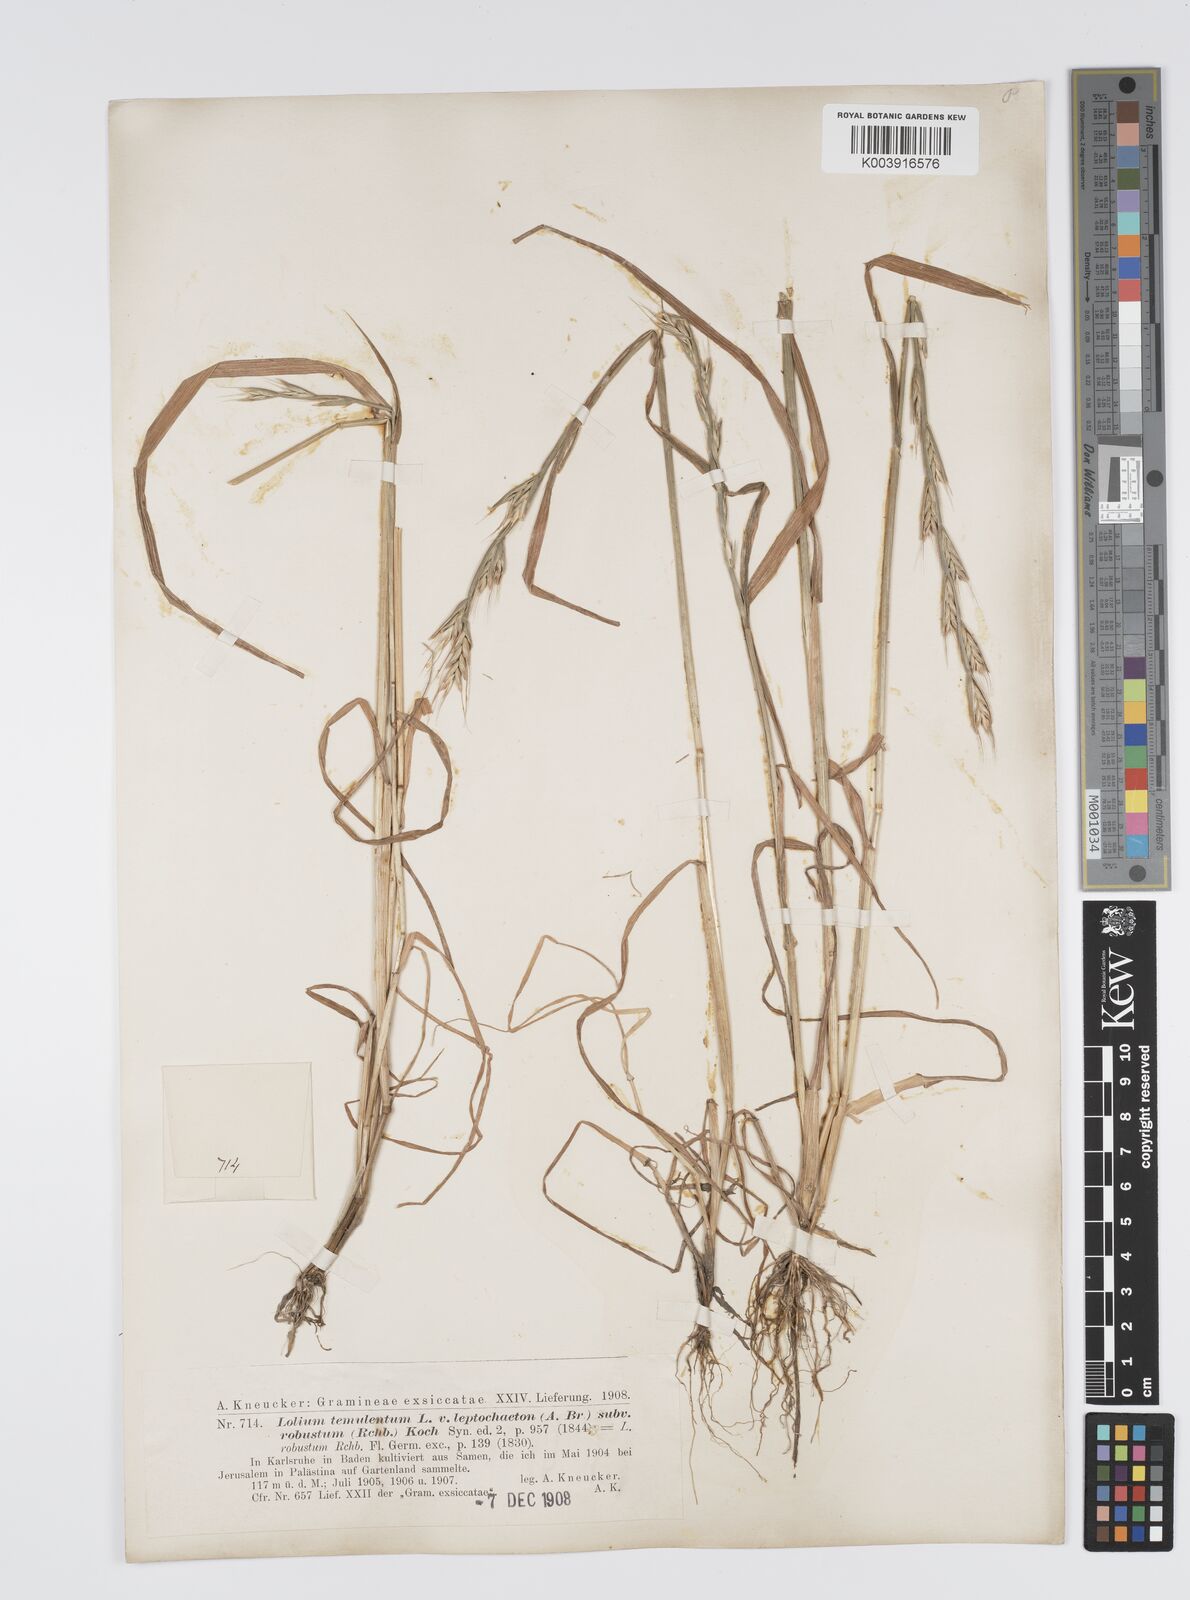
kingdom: Plantae
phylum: Tracheophyta
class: Liliopsida
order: Poales
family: Poaceae
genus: Lolium
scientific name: Lolium temulentum
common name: Darnel
